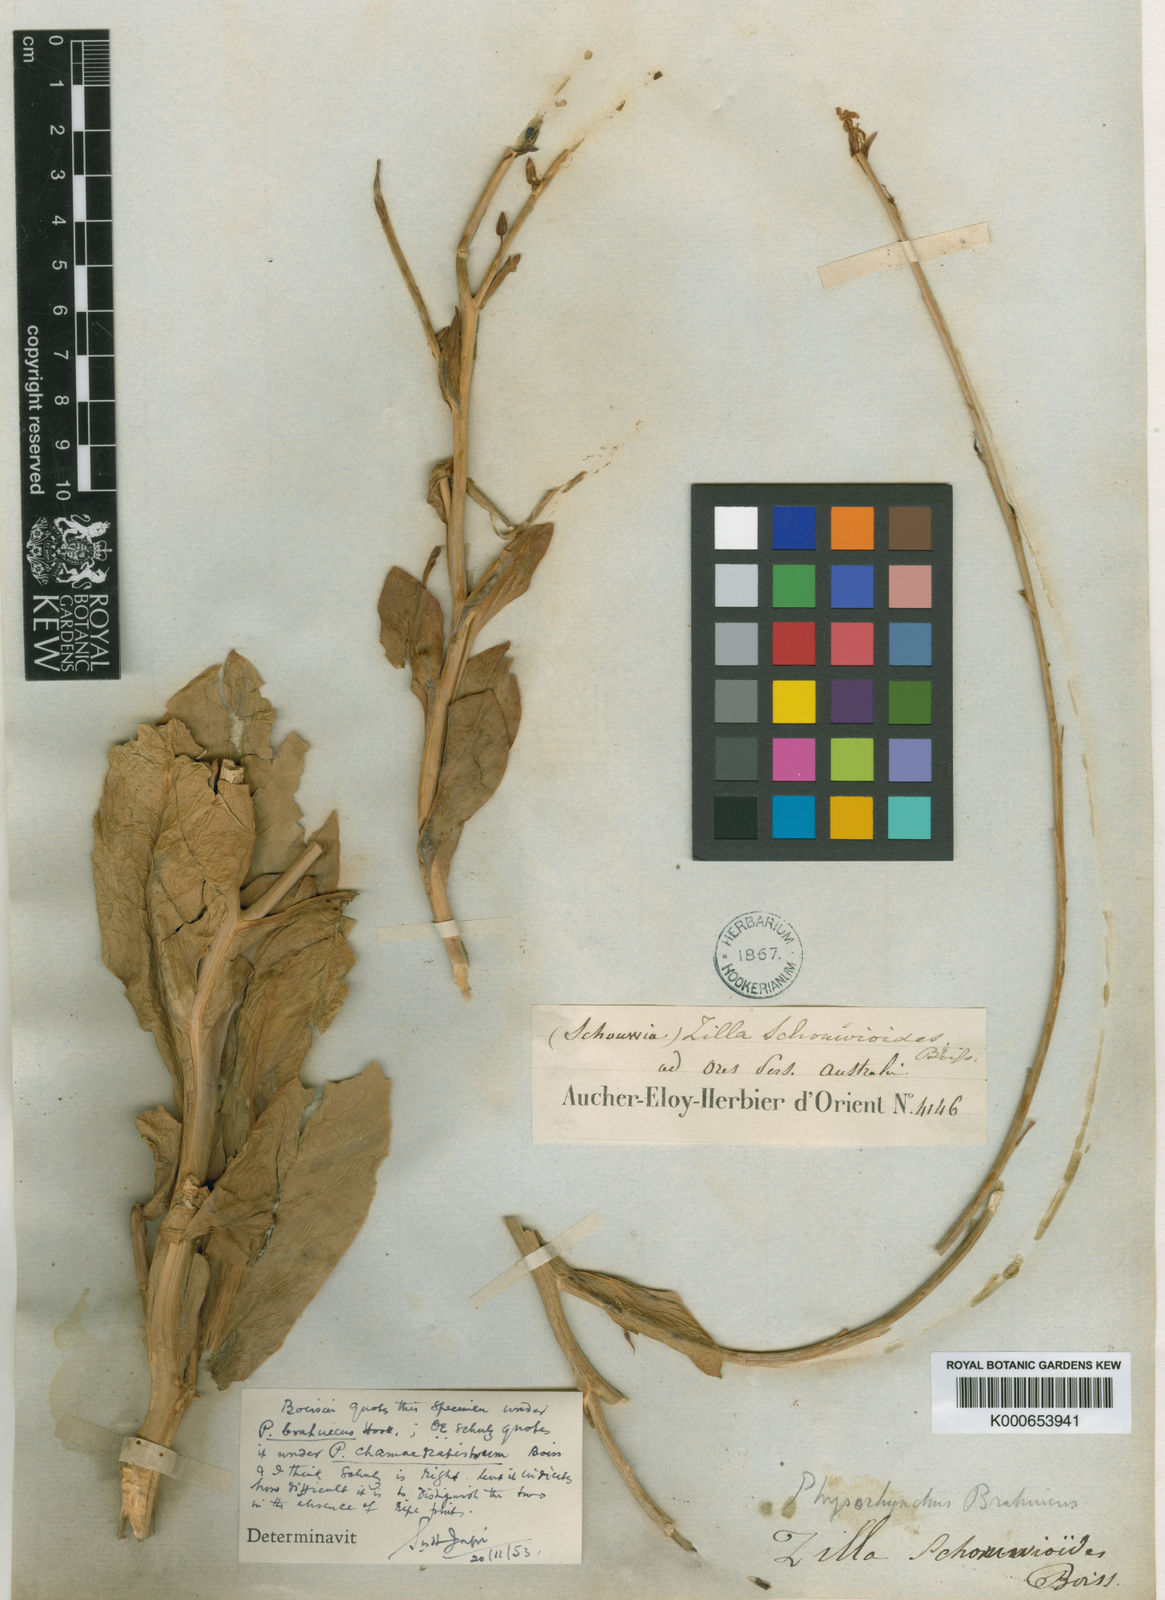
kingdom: Plantae
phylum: Tracheophyta
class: Magnoliopsida
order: Brassicales
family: Brassicaceae
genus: Physorhynchus
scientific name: Physorhynchus chamaerapistrum
